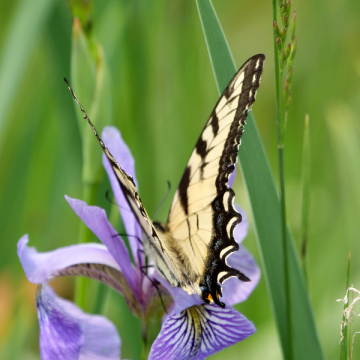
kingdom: Animalia
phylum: Arthropoda
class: Insecta
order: Lepidoptera
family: Papilionidae
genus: Pterourus
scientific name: Pterourus canadensis
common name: Canadian Tiger Swallowtail
